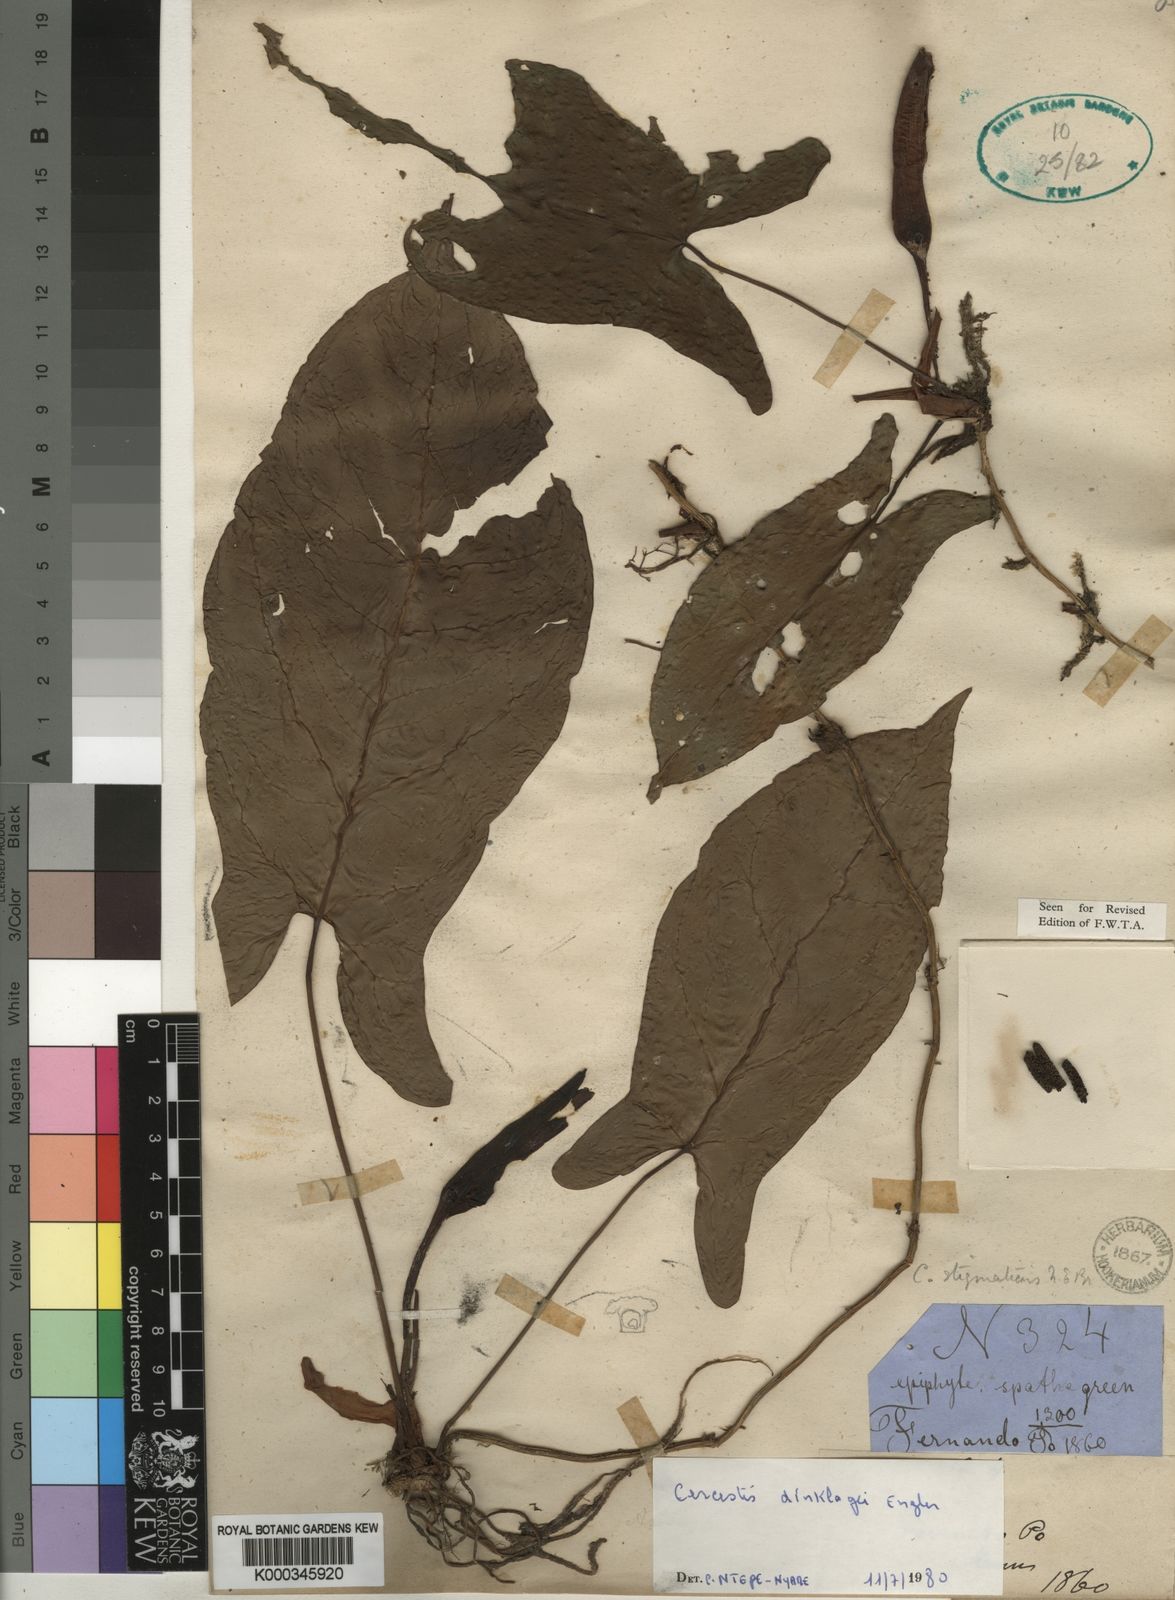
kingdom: Plantae
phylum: Tracheophyta
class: Liliopsida
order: Alismatales
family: Araceae
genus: Cercestis
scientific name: Cercestis dinklagei
